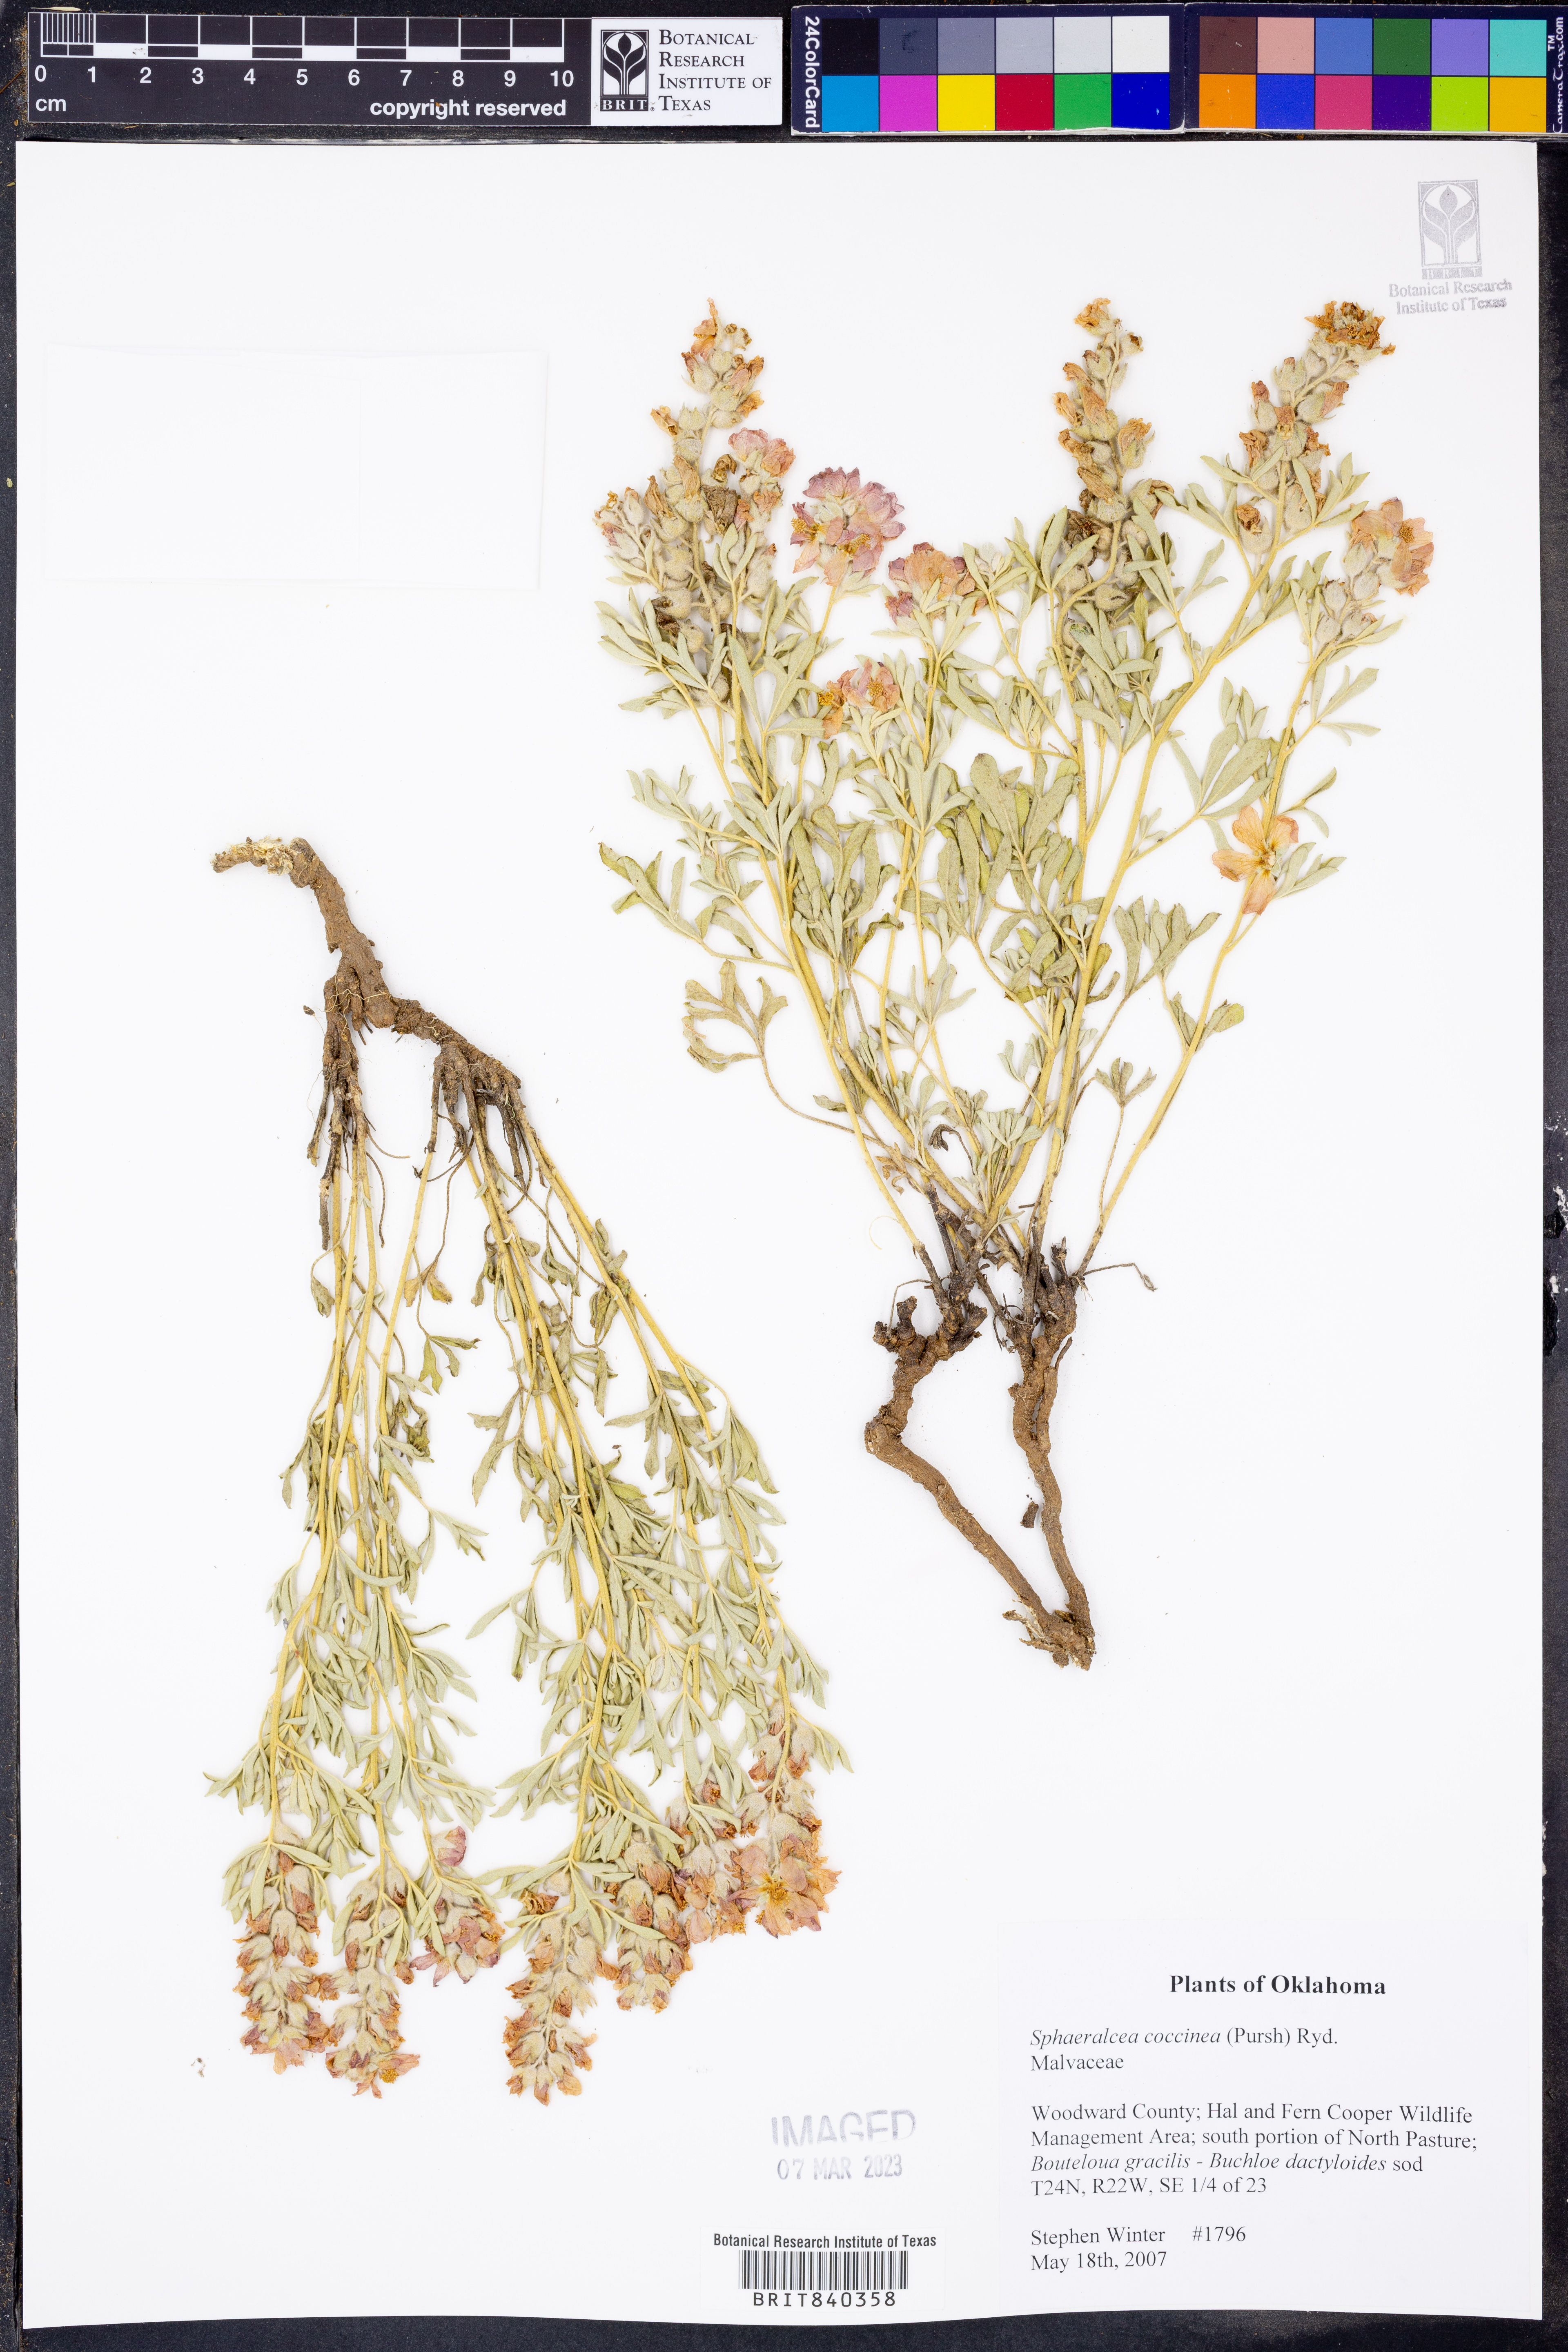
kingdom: Plantae
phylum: Tracheophyta
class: Magnoliopsida
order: Malvales
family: Malvaceae
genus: Sphaeralcea
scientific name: Sphaeralcea coccinea
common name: Moss-rose
